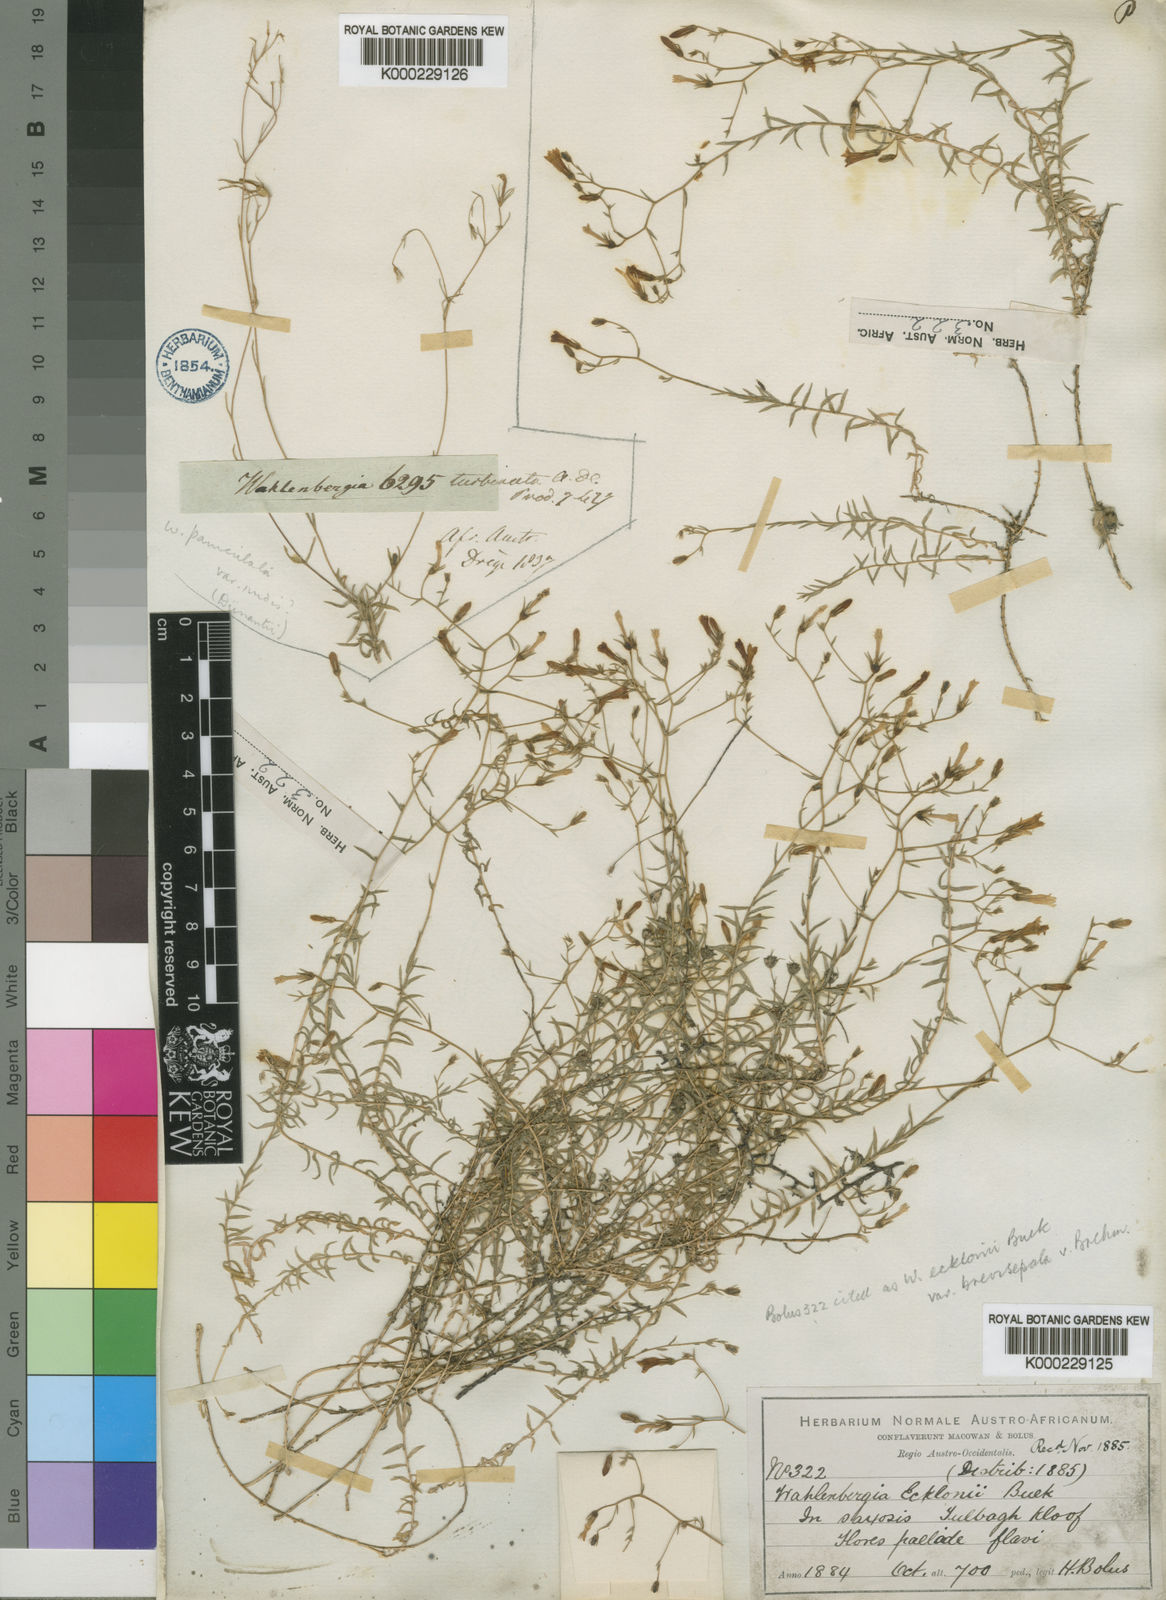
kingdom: Plantae
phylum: Tracheophyta
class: Magnoliopsida
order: Asterales
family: Campanulaceae
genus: Wahlenbergia
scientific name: Wahlenbergia ecklonii
